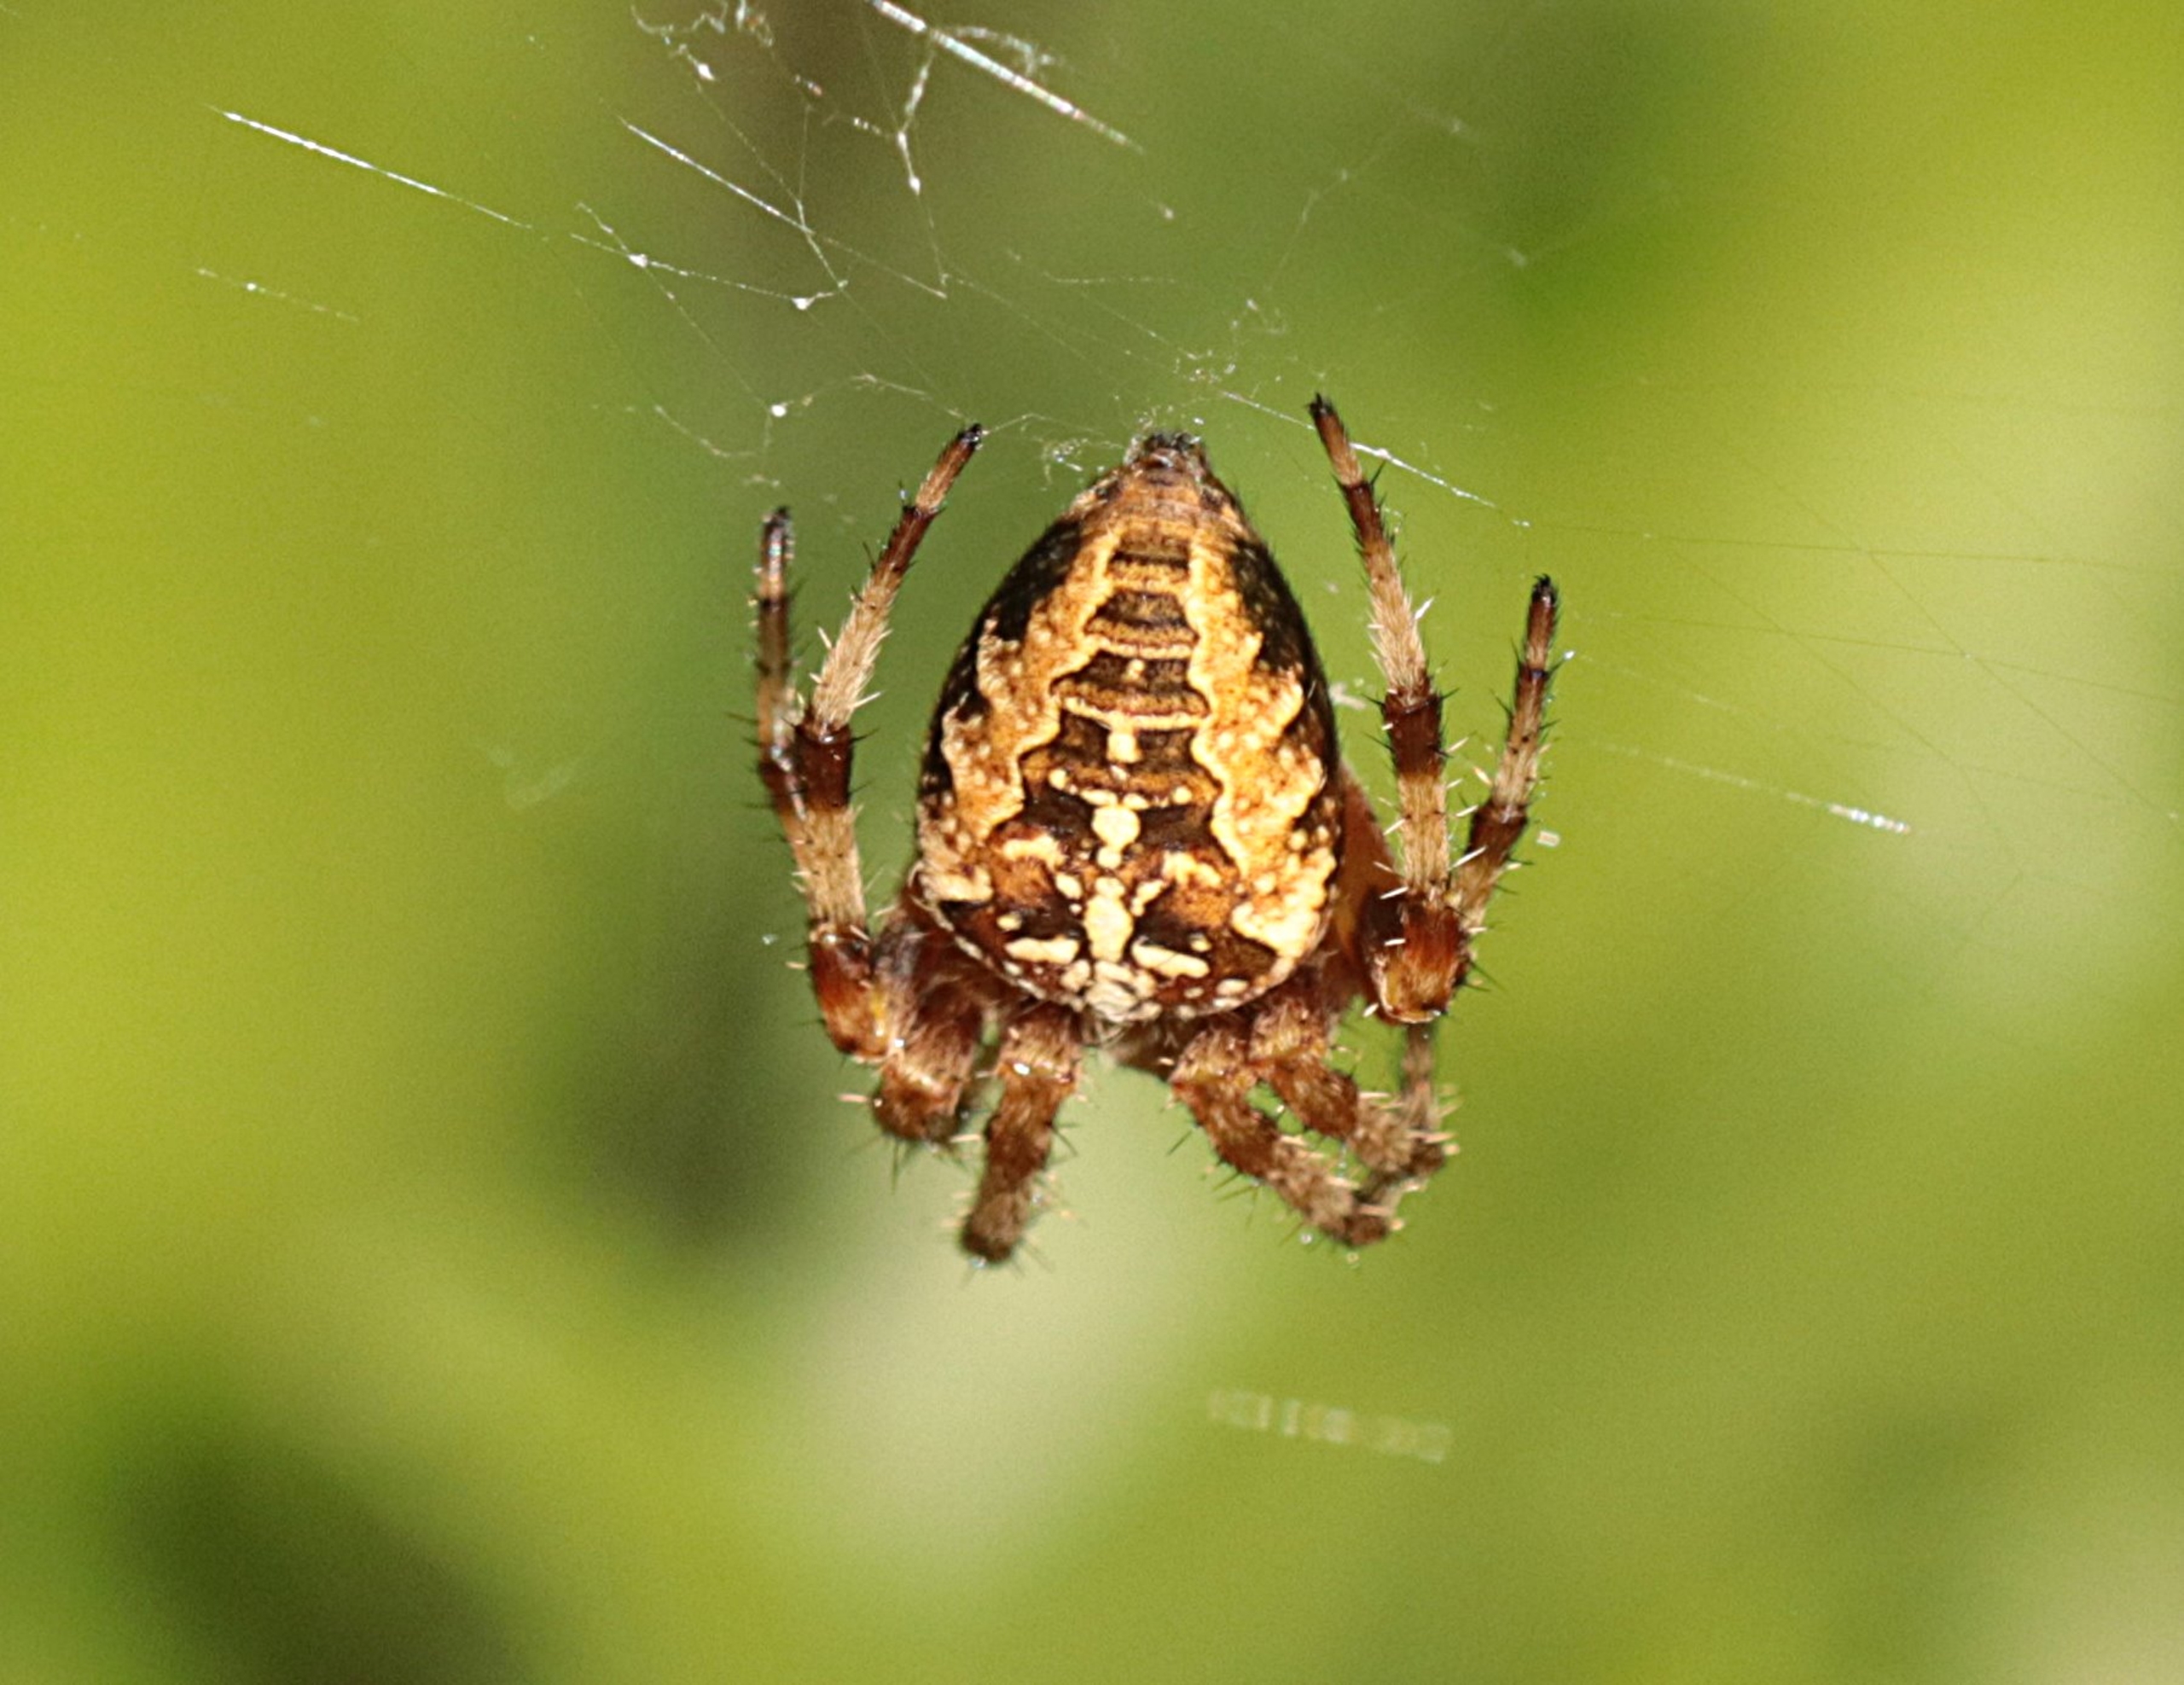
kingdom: Animalia
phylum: Arthropoda
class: Arachnida
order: Araneae
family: Araneidae
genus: Araneus
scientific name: Araneus diadematus
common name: Korsedderkop
